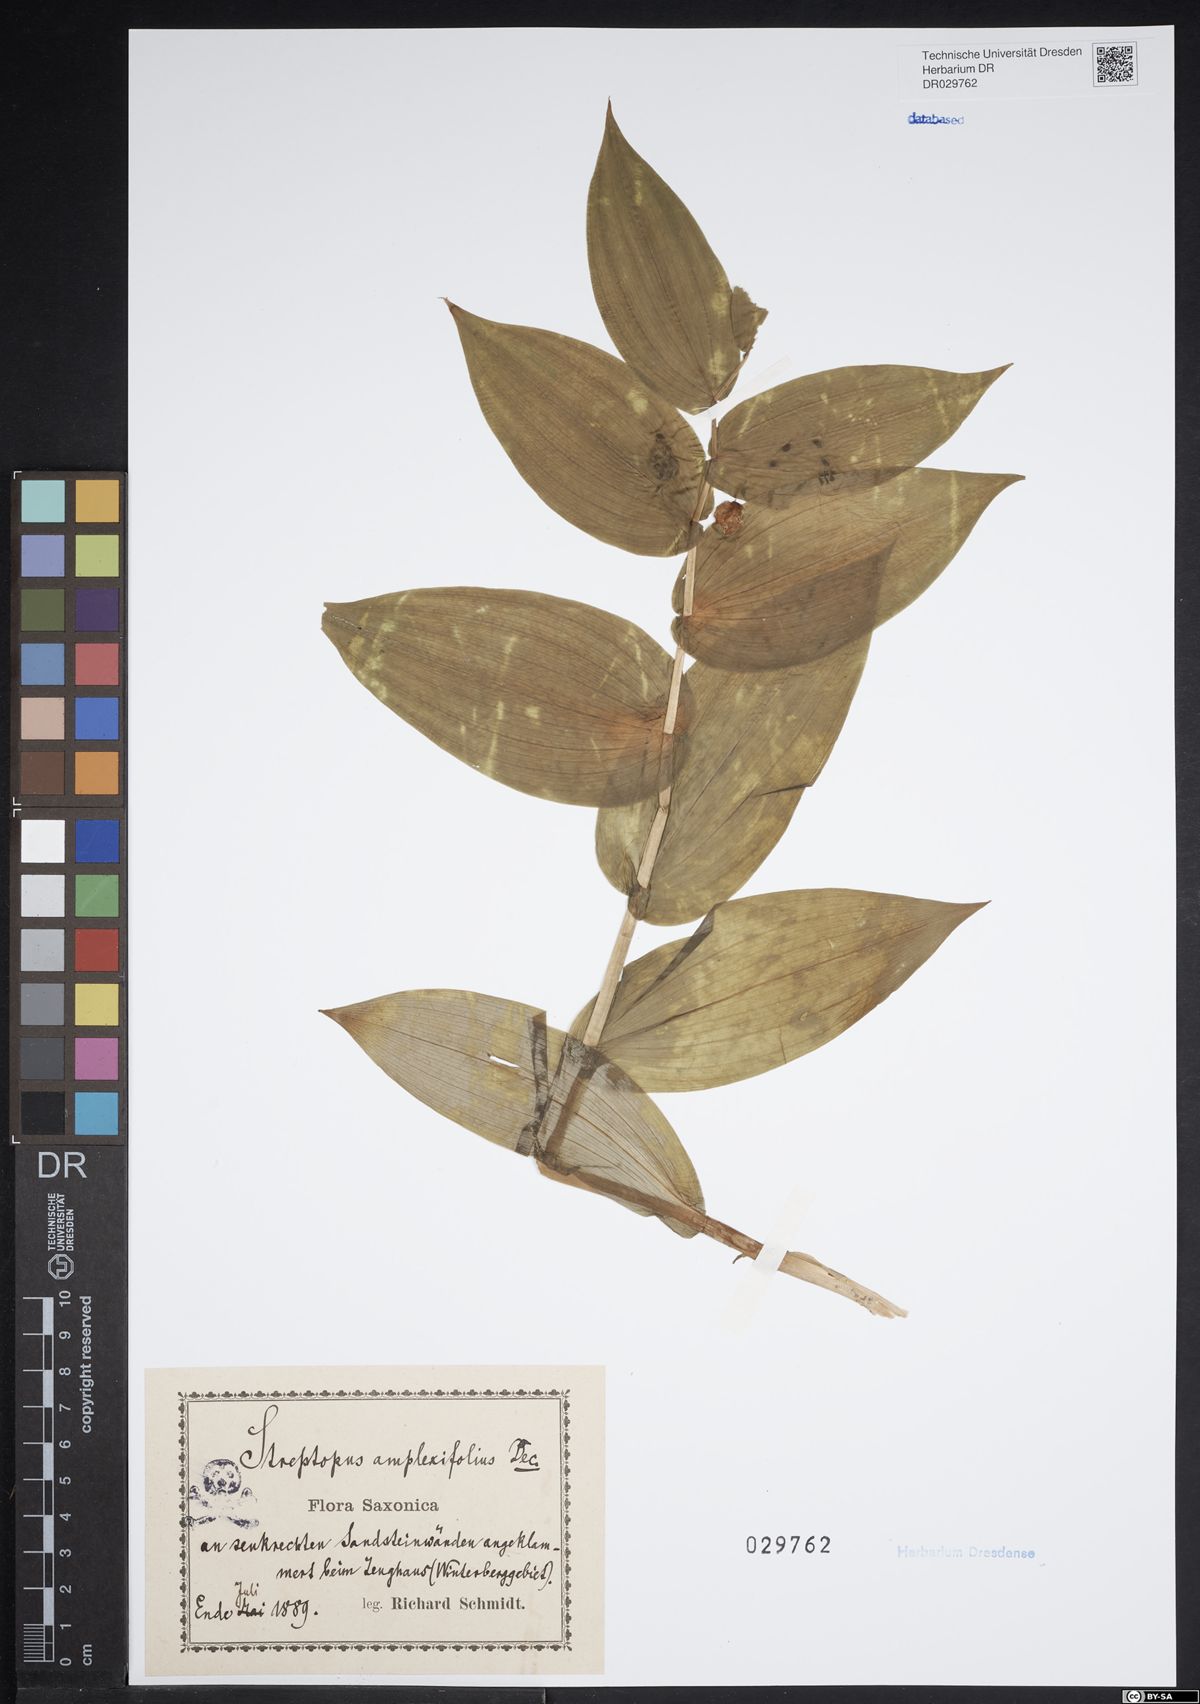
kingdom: Plantae
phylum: Tracheophyta
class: Liliopsida
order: Liliales
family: Liliaceae
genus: Streptopus
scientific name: Streptopus amplexifolius
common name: Clasp twisted stalk
